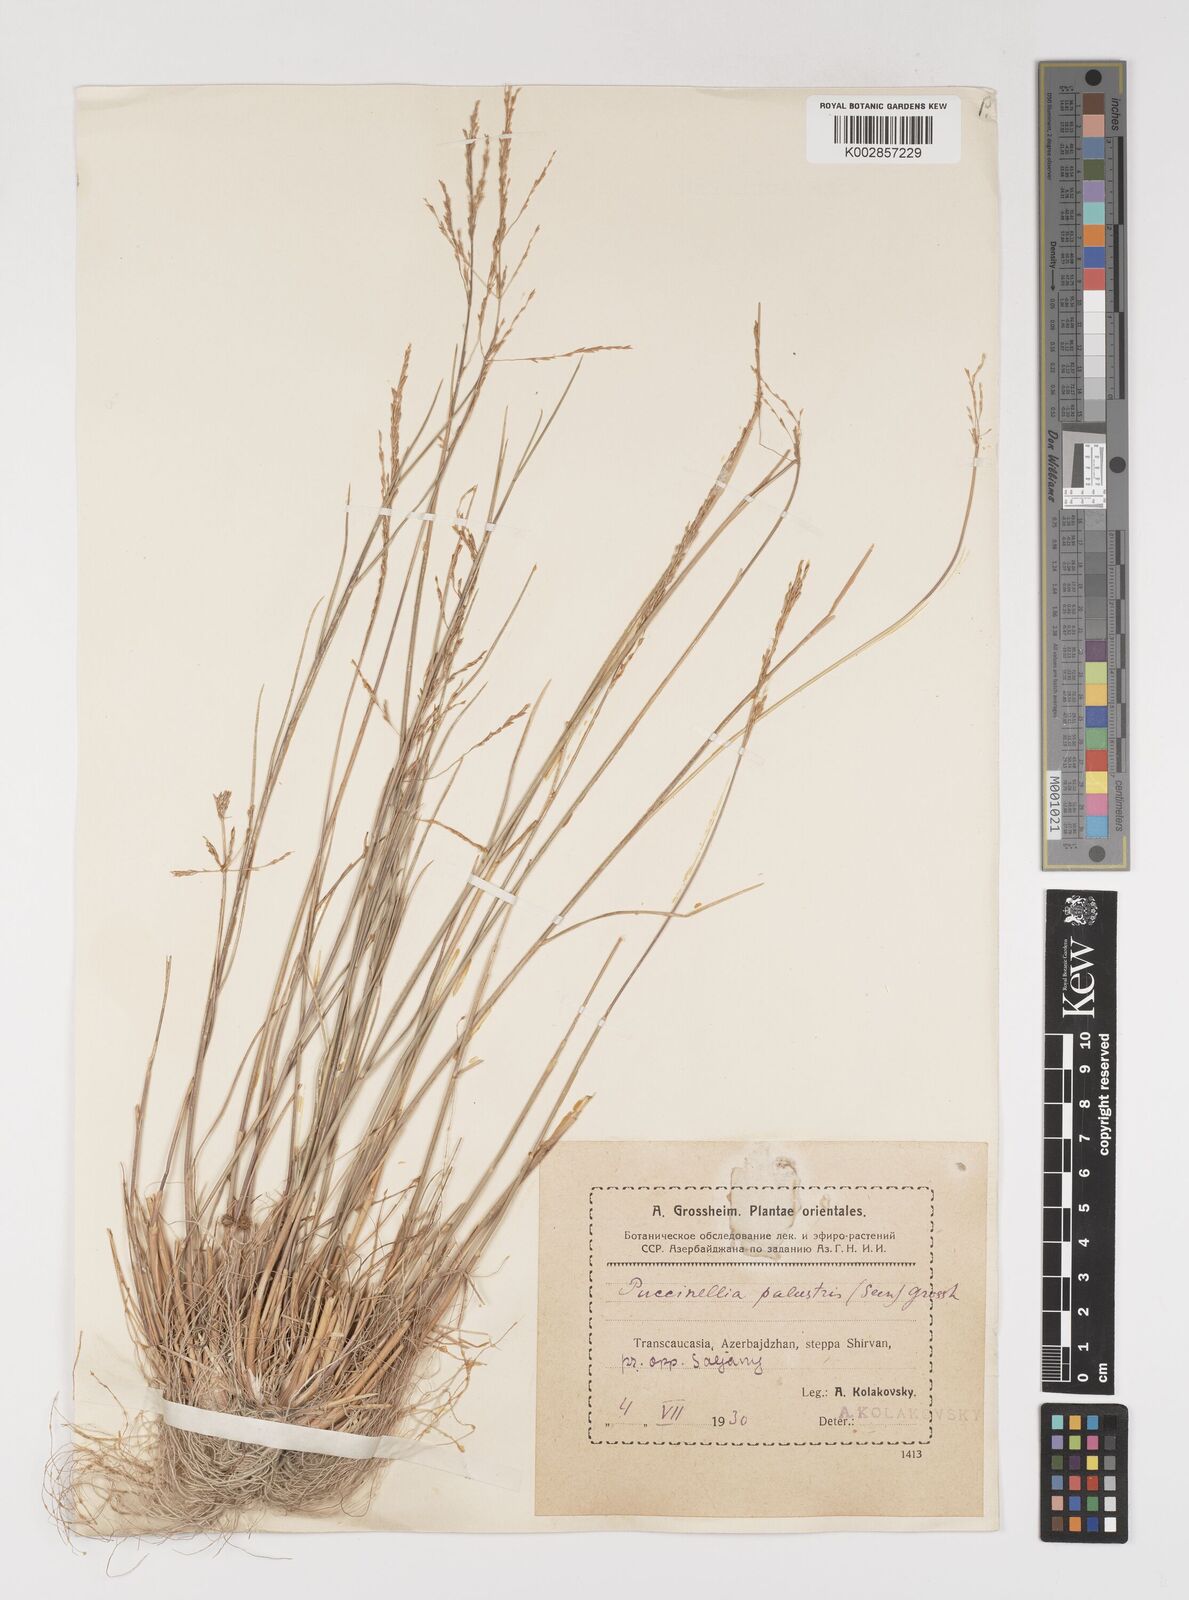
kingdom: Plantae
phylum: Tracheophyta
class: Liliopsida
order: Poales
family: Poaceae
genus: Puccinellia
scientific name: Puccinellia poecilantha
